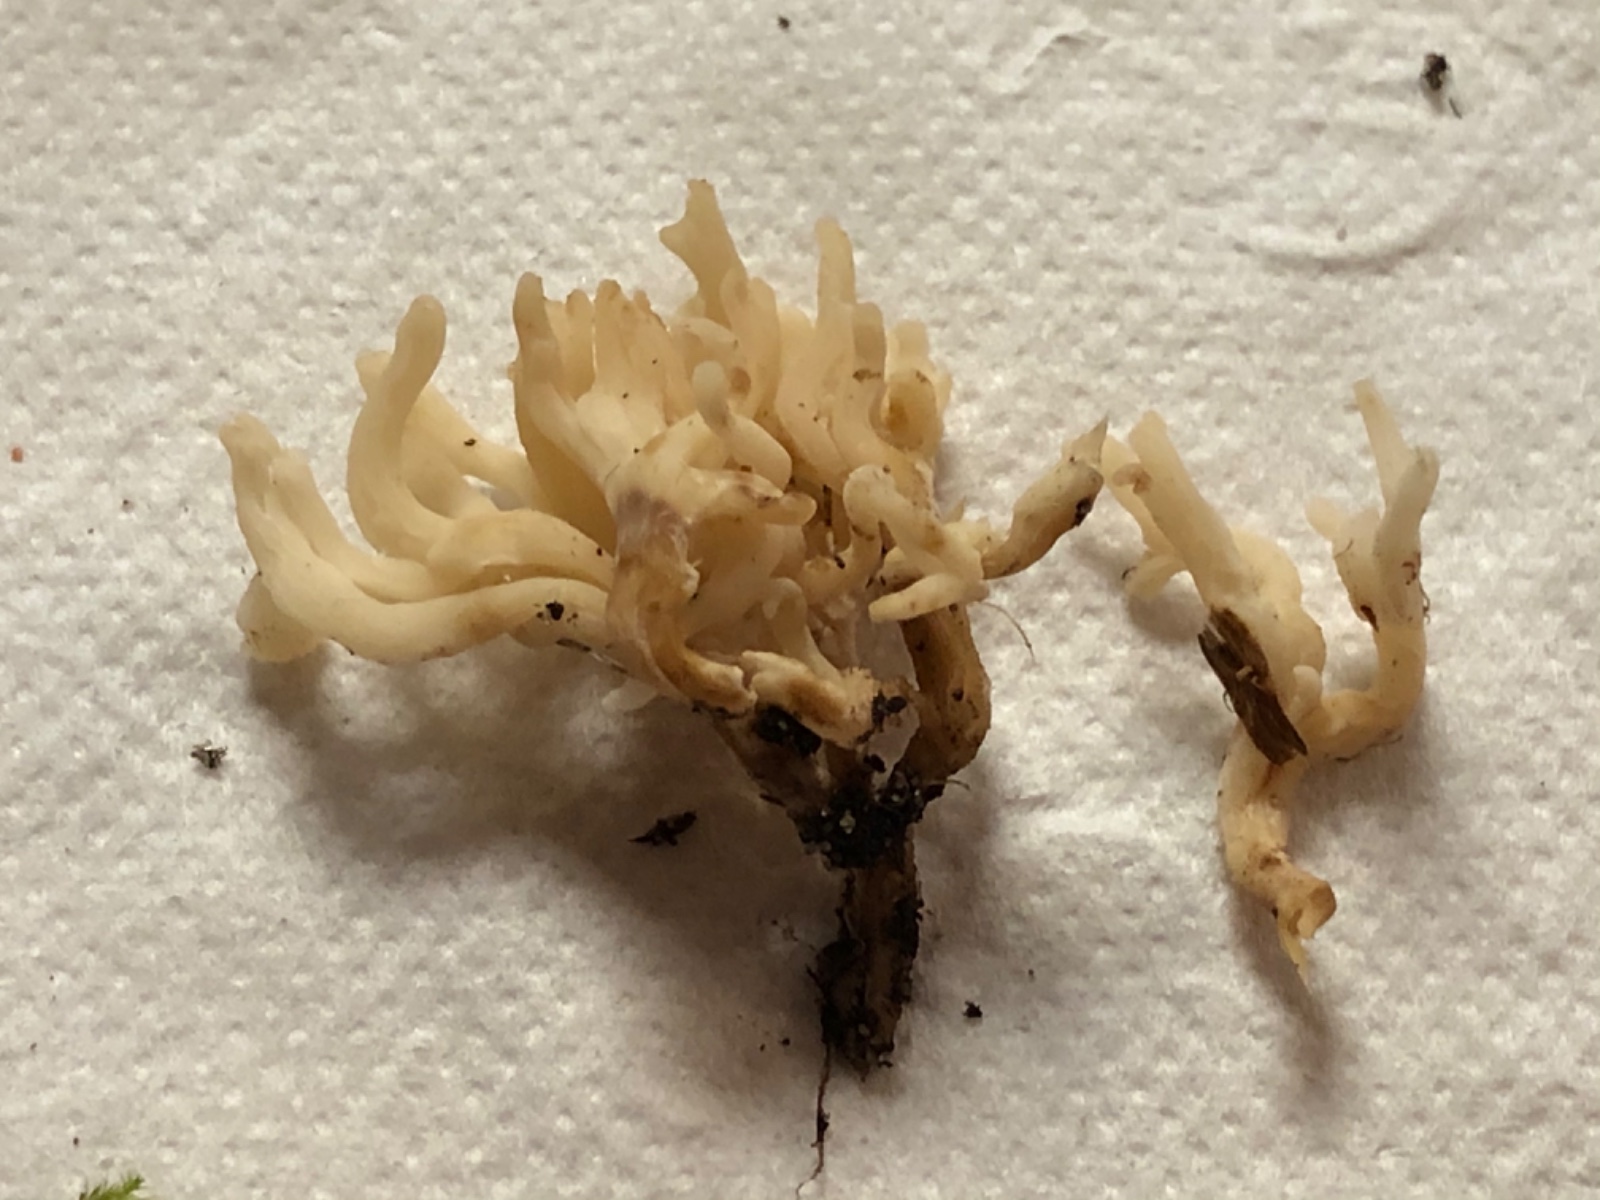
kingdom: Fungi
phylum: Basidiomycota
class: Agaricomycetes
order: Agaricales
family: Clavariaceae
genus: Clavulinopsis
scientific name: Clavulinopsis umbrinella
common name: gulgrå køllesvamp
